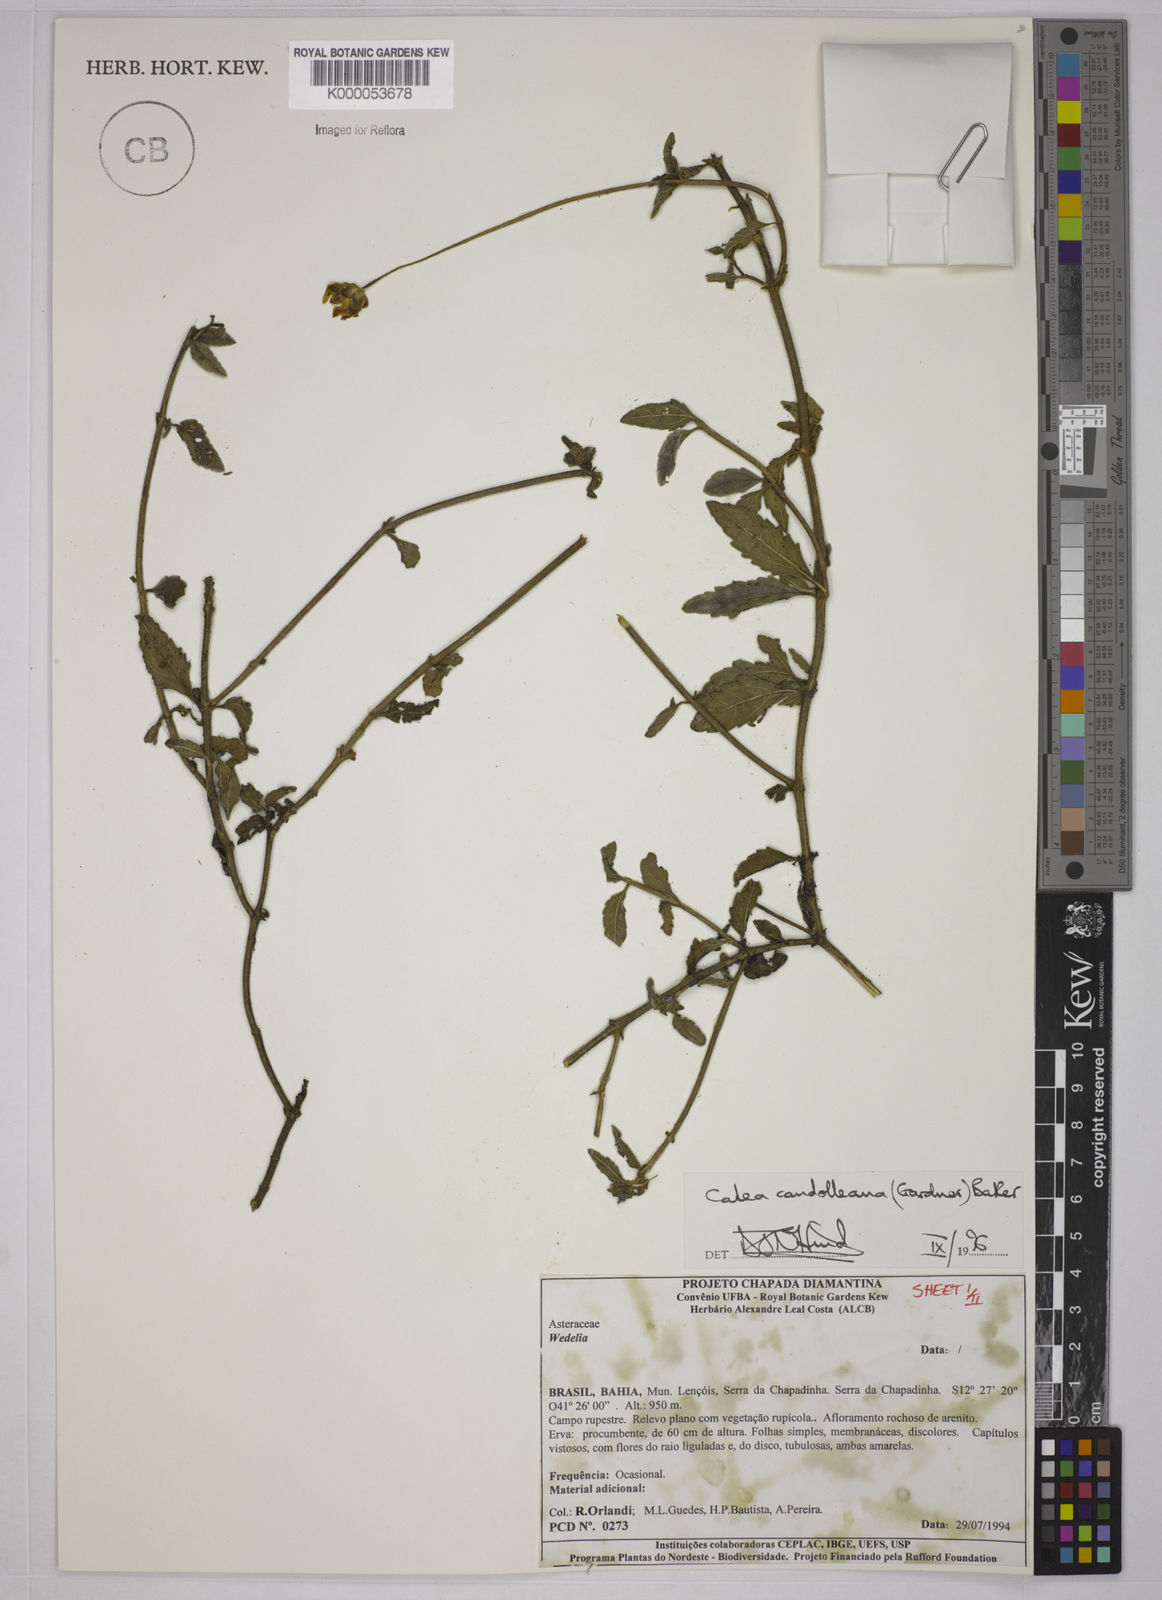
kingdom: Plantae
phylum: Tracheophyta
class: Magnoliopsida
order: Asterales
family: Asteraceae
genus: Calea
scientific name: Calea candolleana
